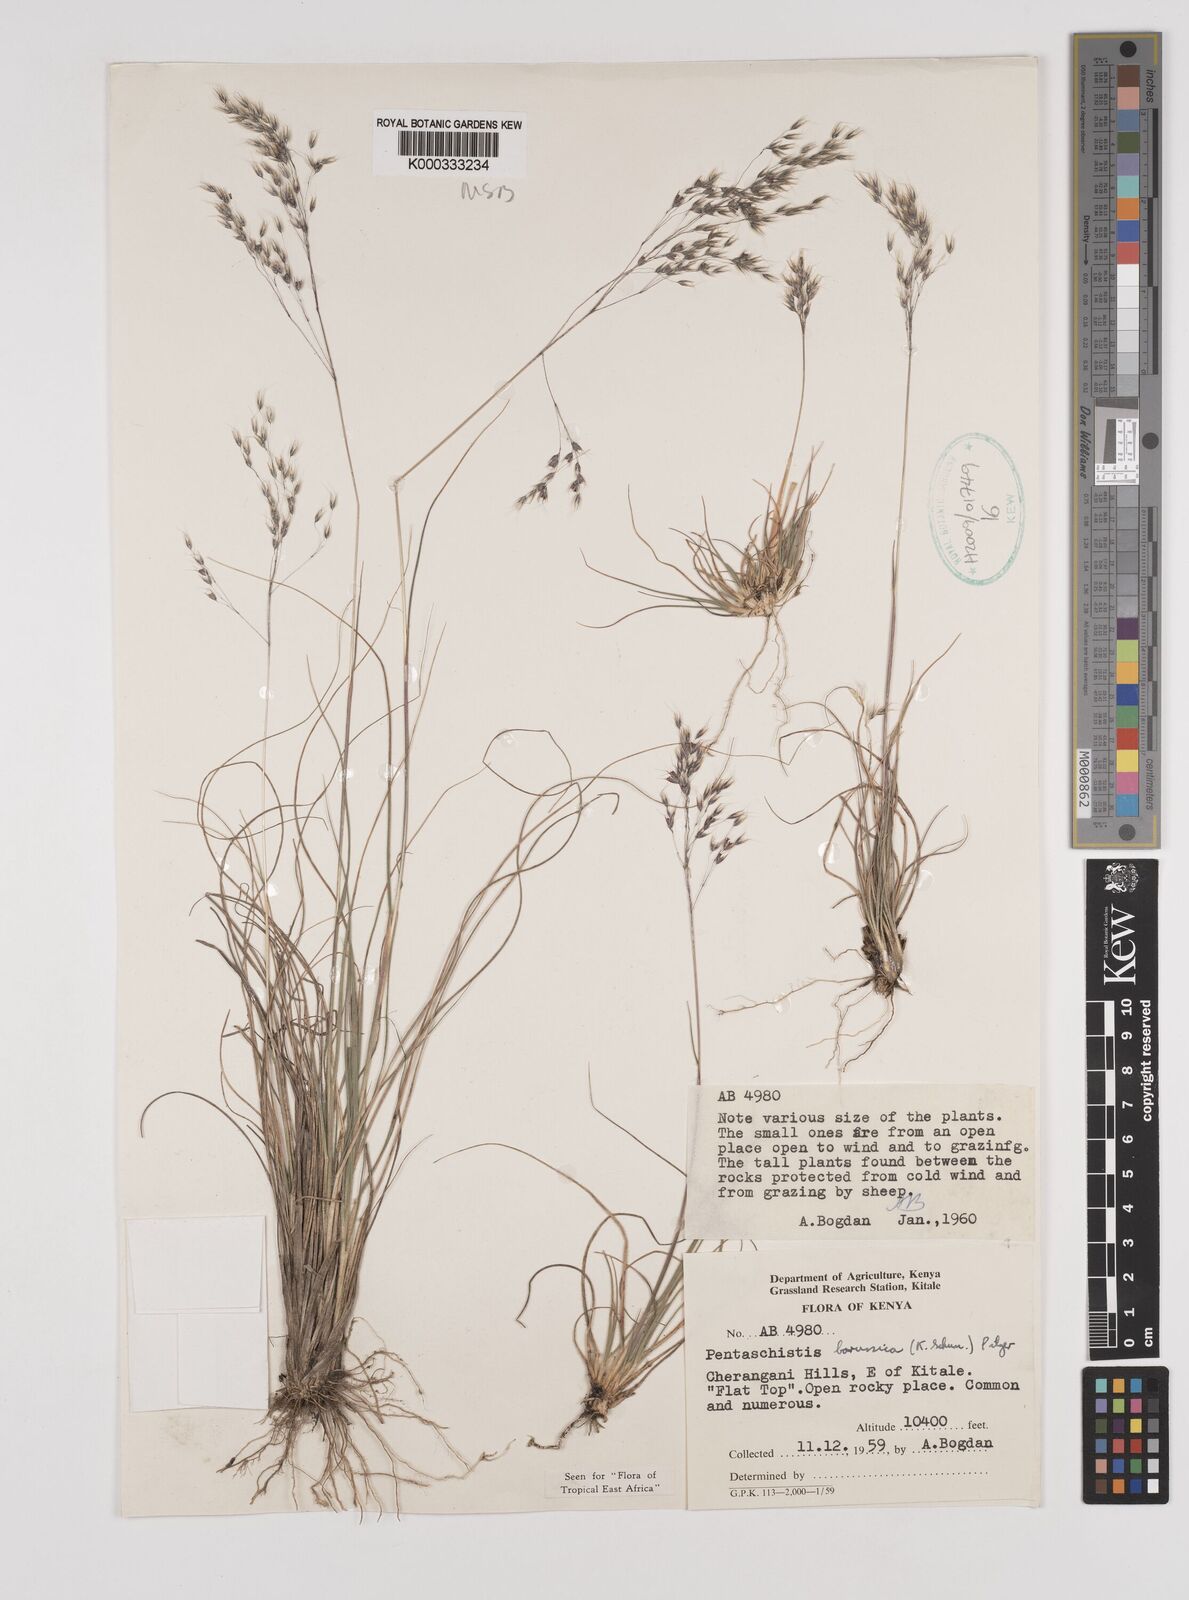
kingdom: Plantae
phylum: Tracheophyta
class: Liliopsida
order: Poales
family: Poaceae
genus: Pentameris
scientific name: Pentameris borussica
